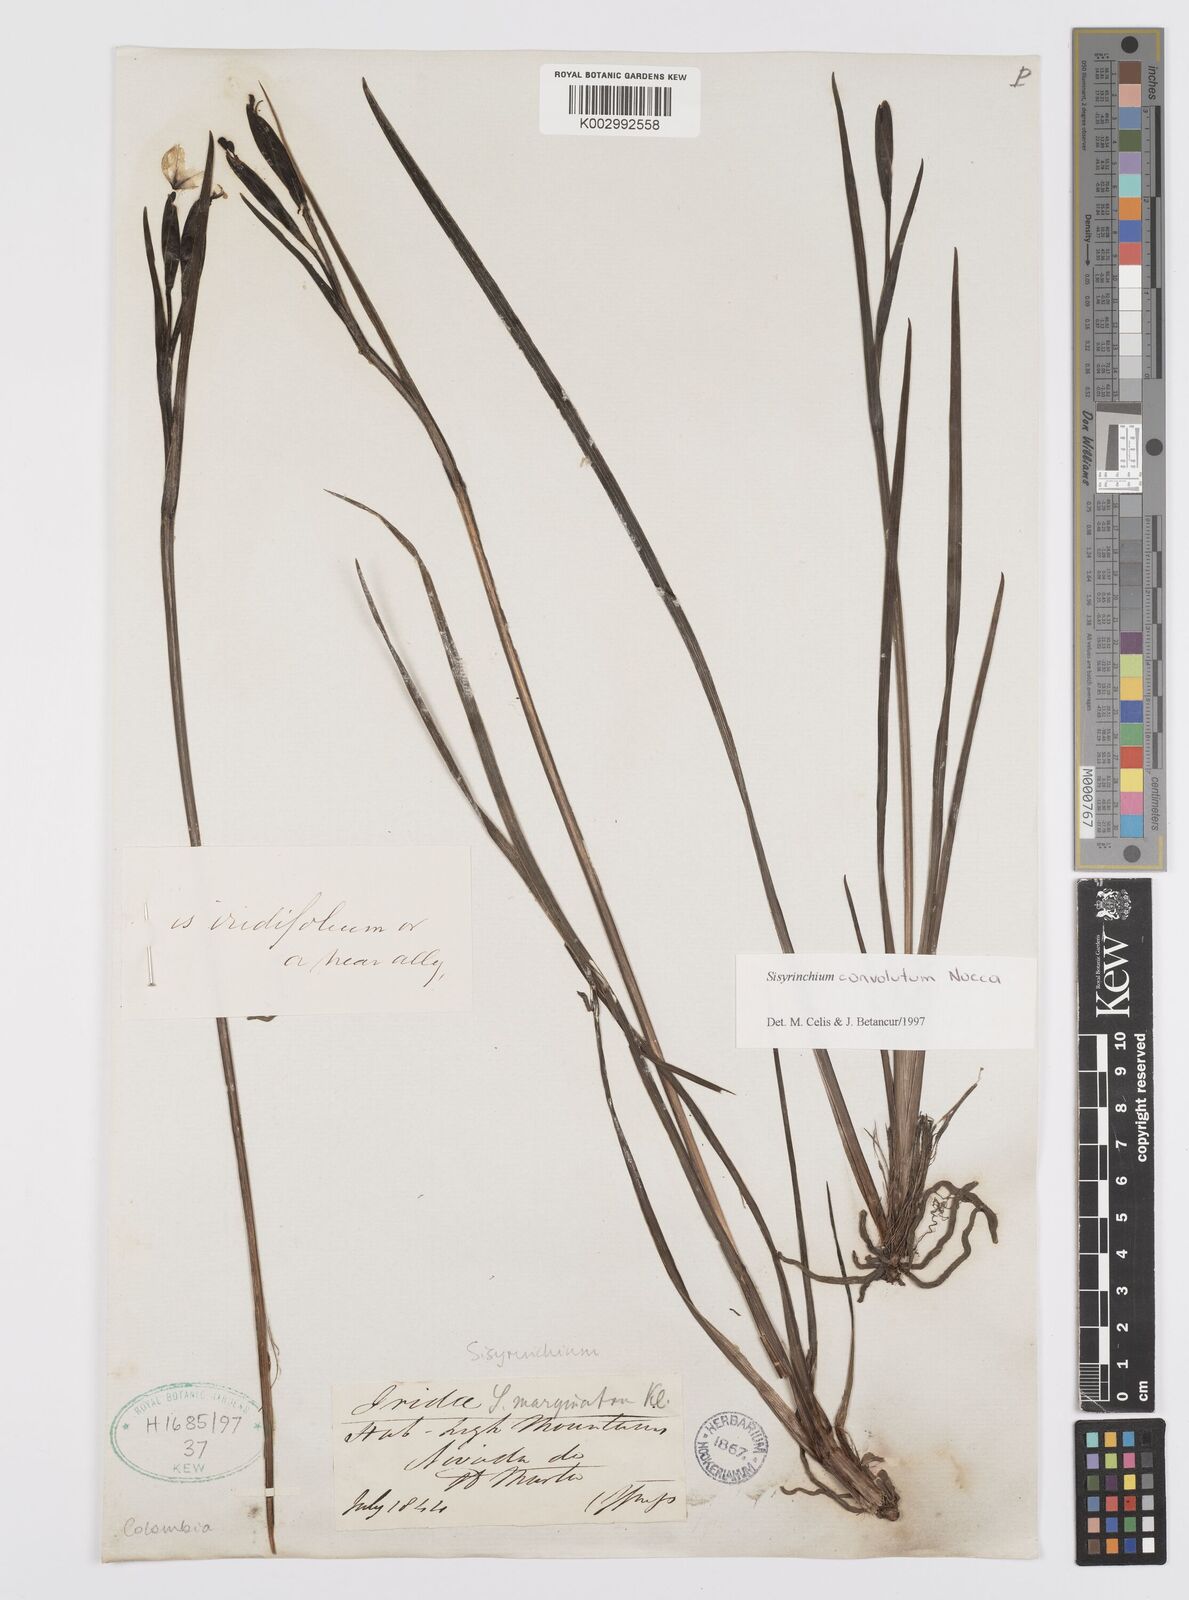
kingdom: Plantae
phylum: Tracheophyta
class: Liliopsida
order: Asparagales
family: Iridaceae
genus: Sisyrinchium
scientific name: Sisyrinchium convolutum
